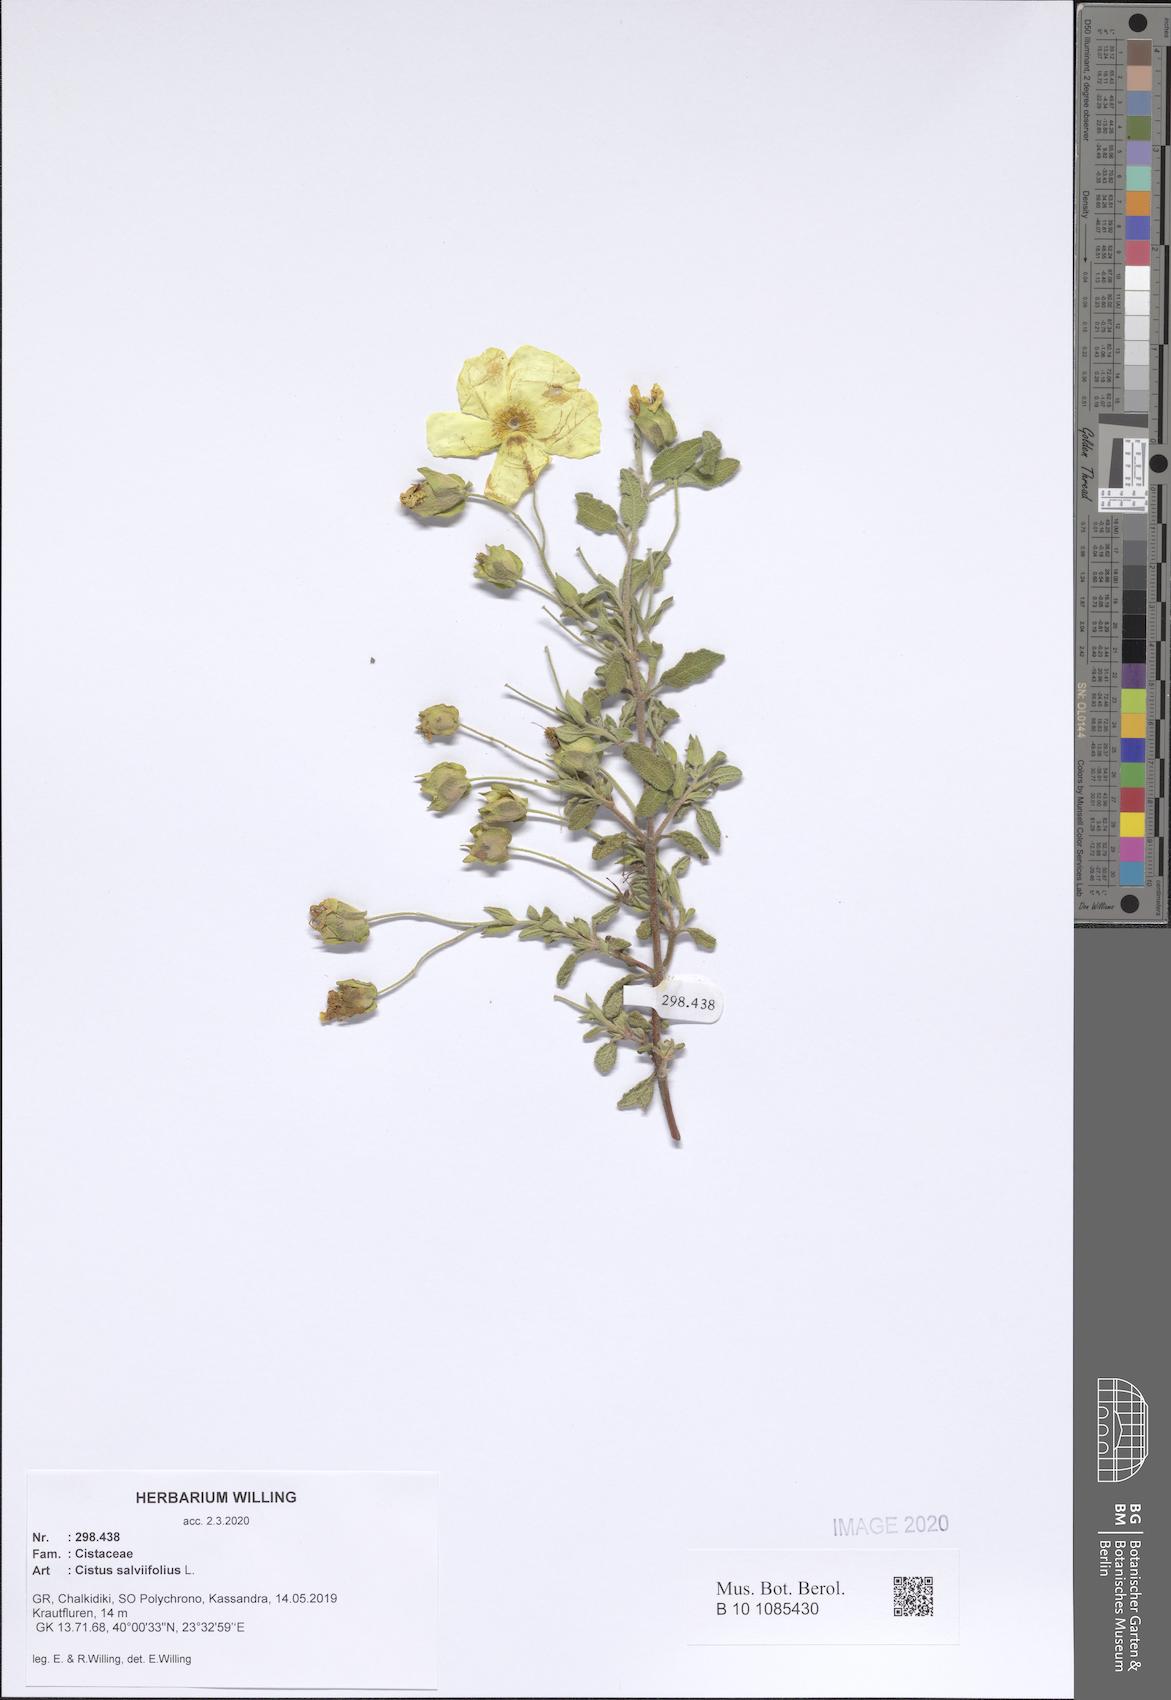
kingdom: Plantae
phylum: Tracheophyta
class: Magnoliopsida
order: Malvales
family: Cistaceae
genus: Cistus
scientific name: Cistus salviifolius
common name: Salvia cistus
